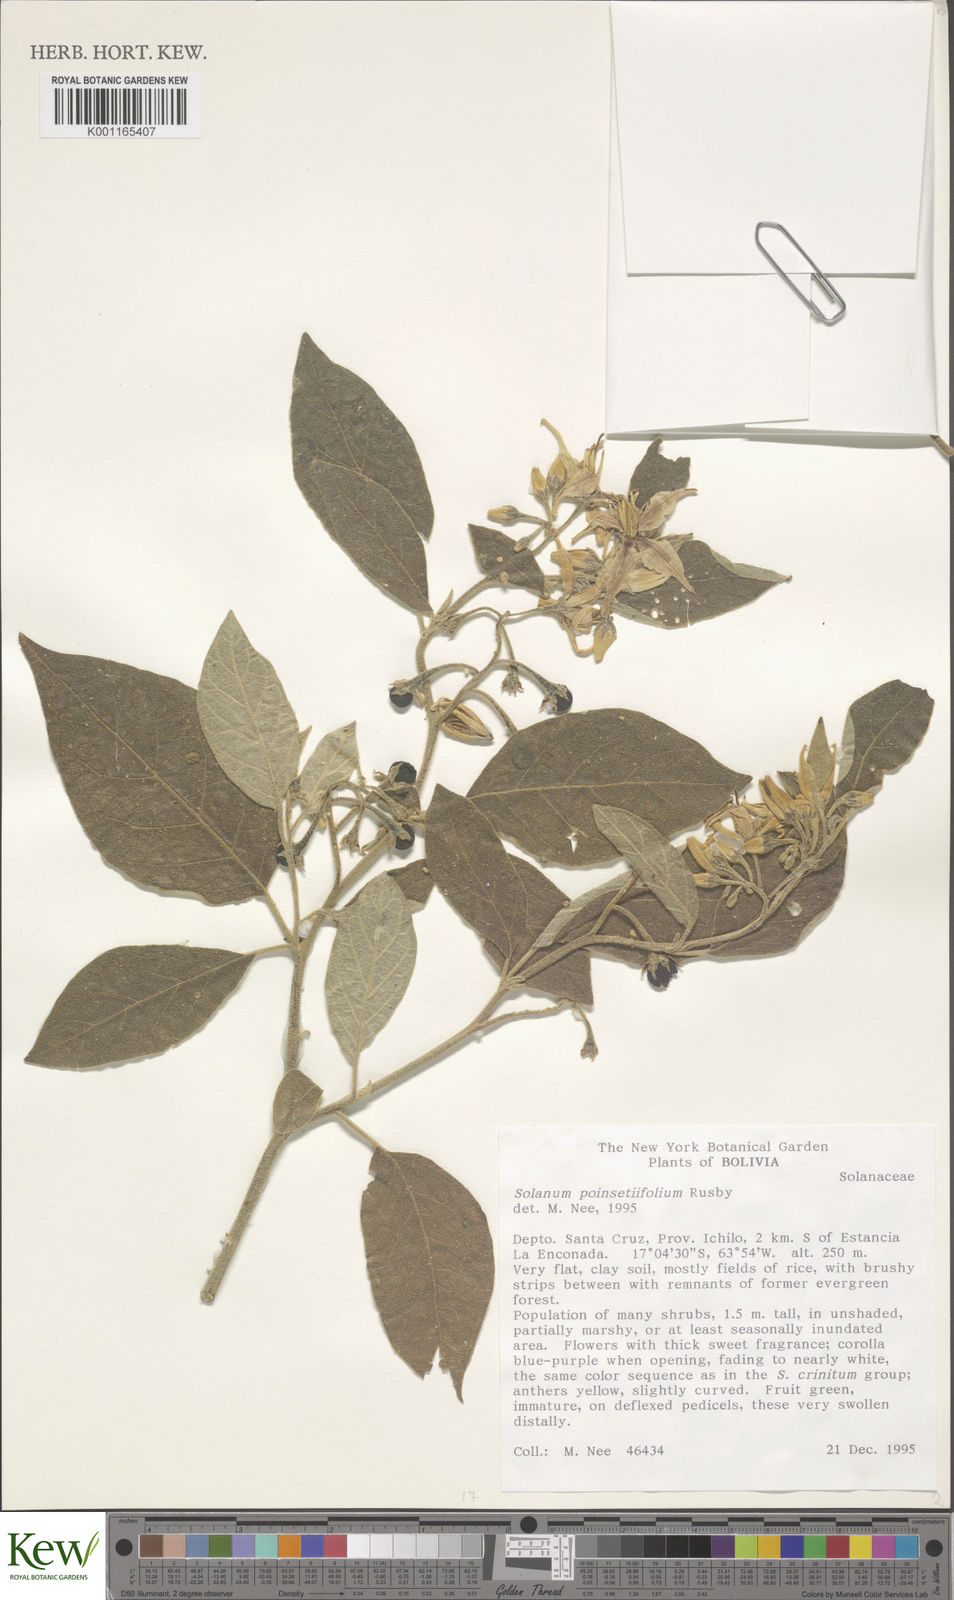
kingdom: Plantae
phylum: Tracheophyta
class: Magnoliopsida
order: Solanales
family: Solanaceae
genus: Solanum
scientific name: Solanum poinsettiifolium
